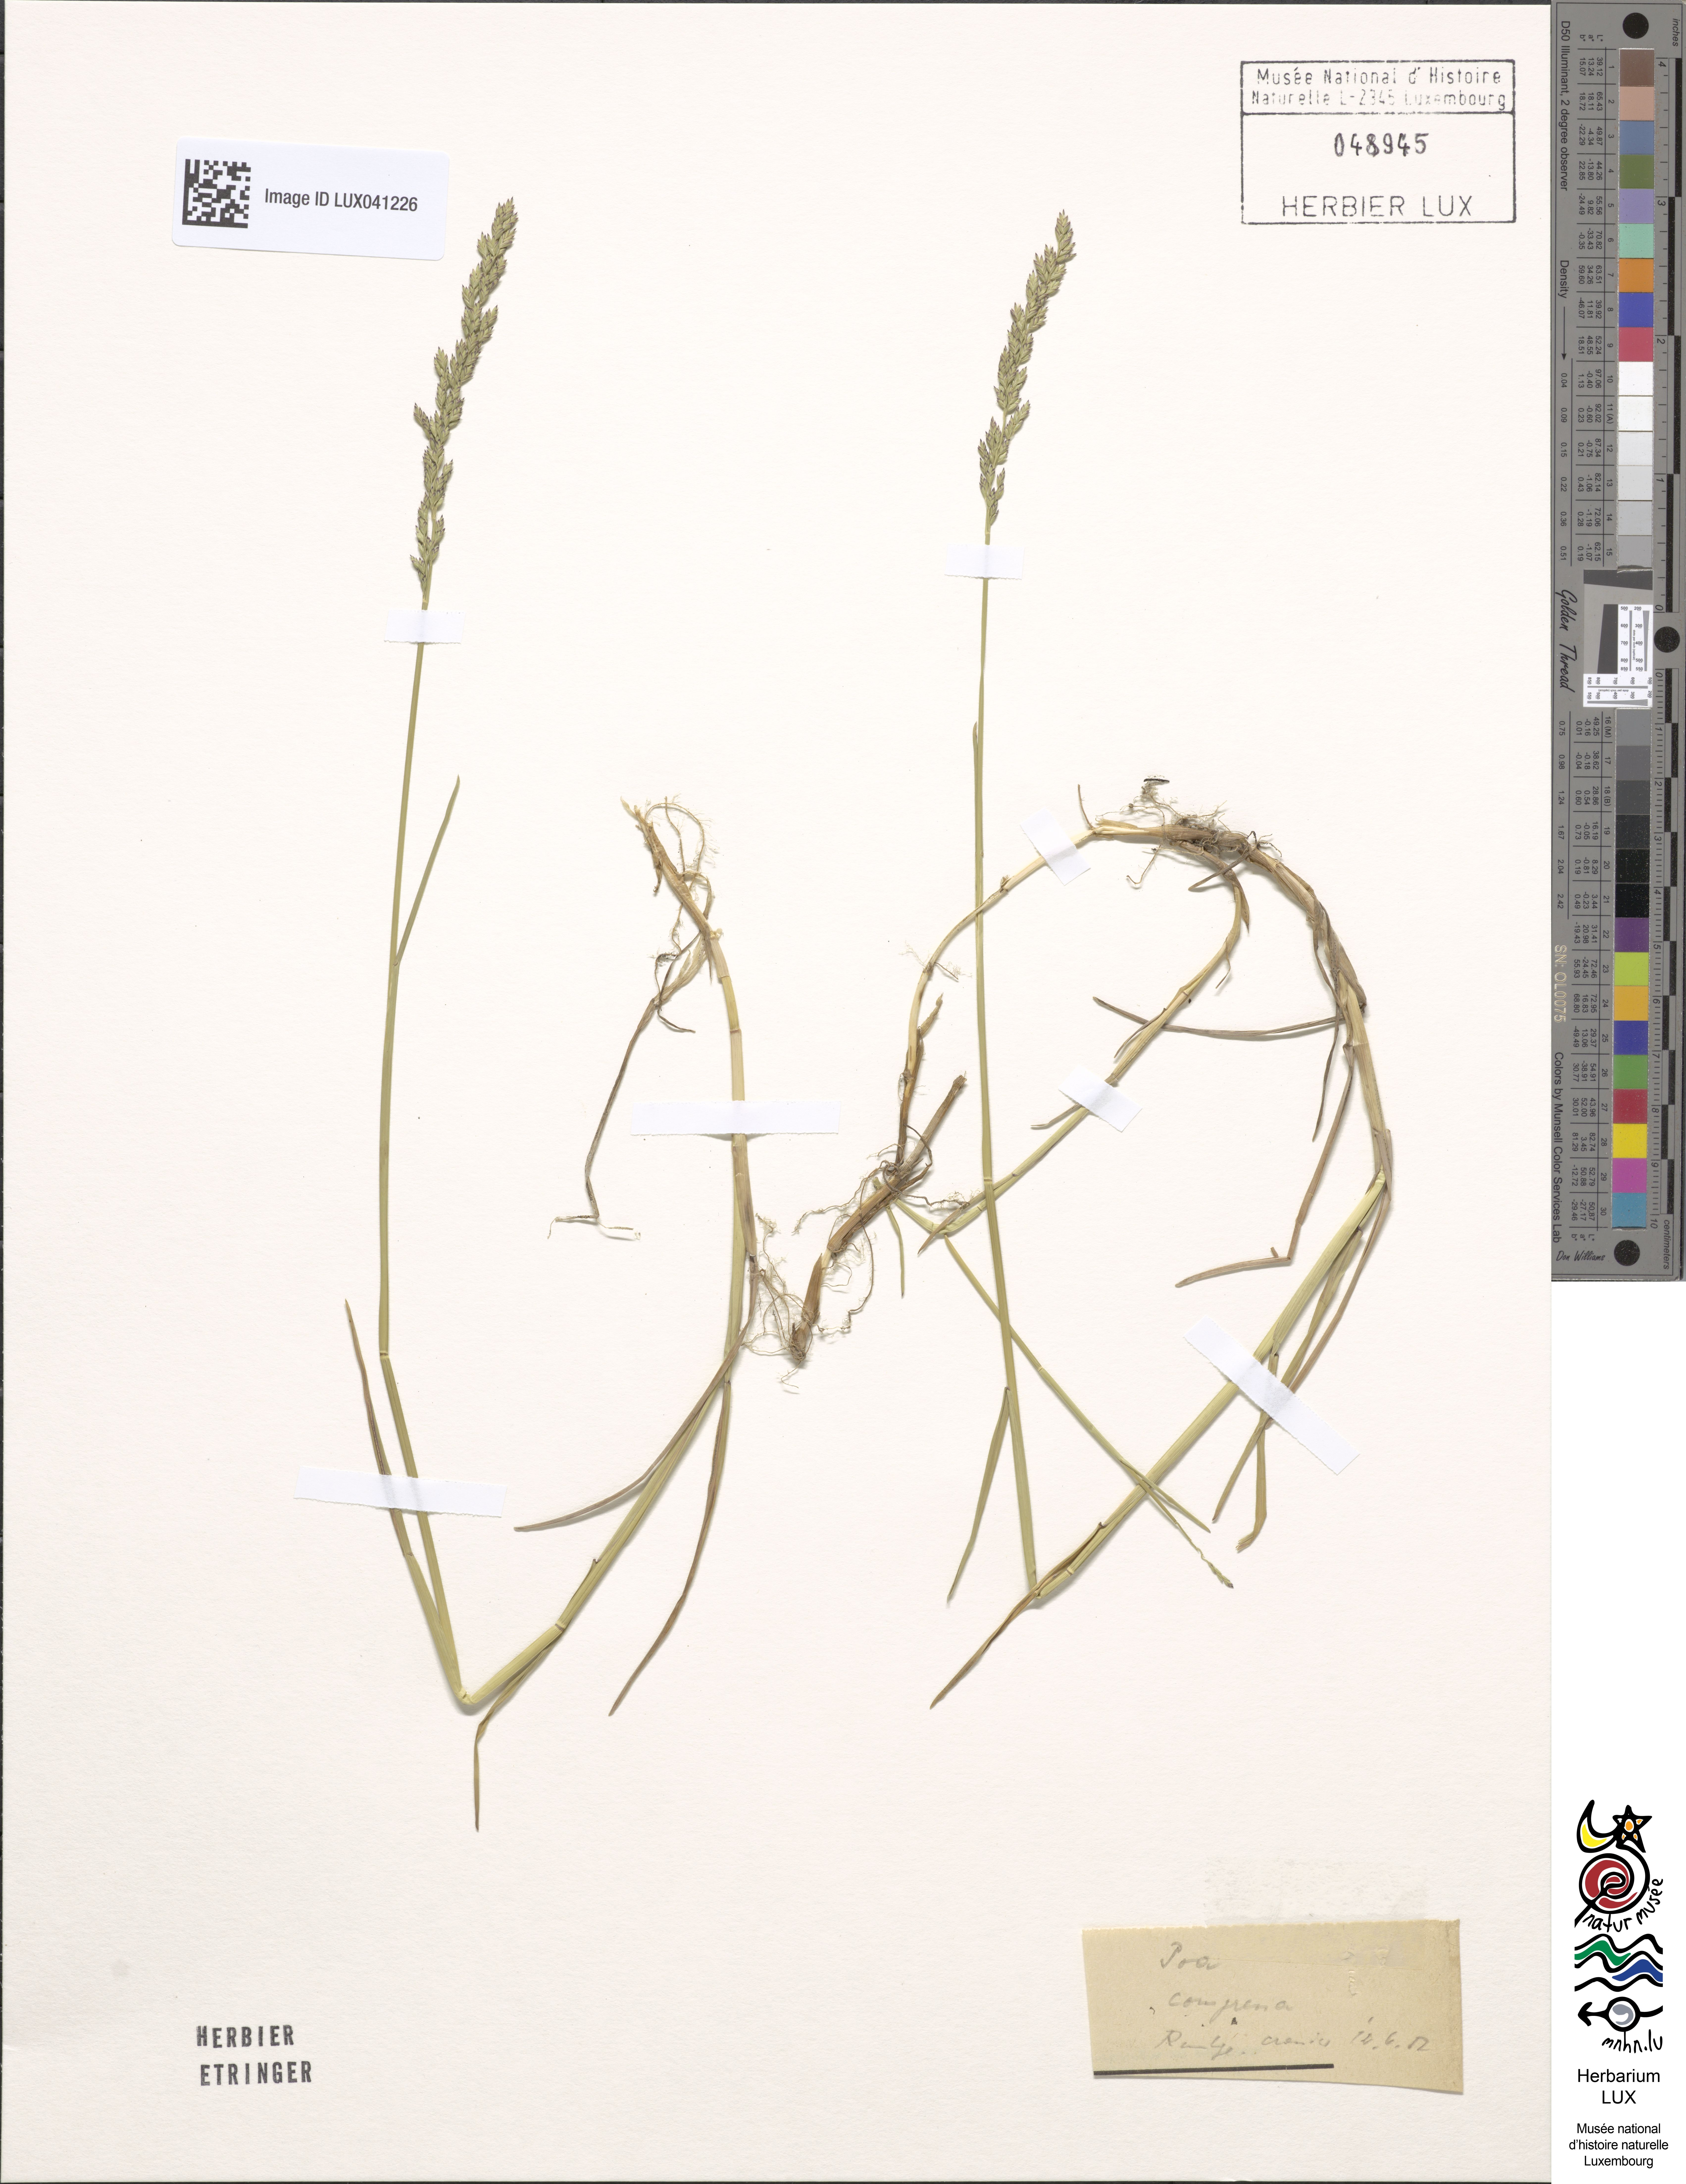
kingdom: Plantae
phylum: Tracheophyta
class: Liliopsida
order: Poales
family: Poaceae
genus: Poa
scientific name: Poa compressa
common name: Canada bluegrass
